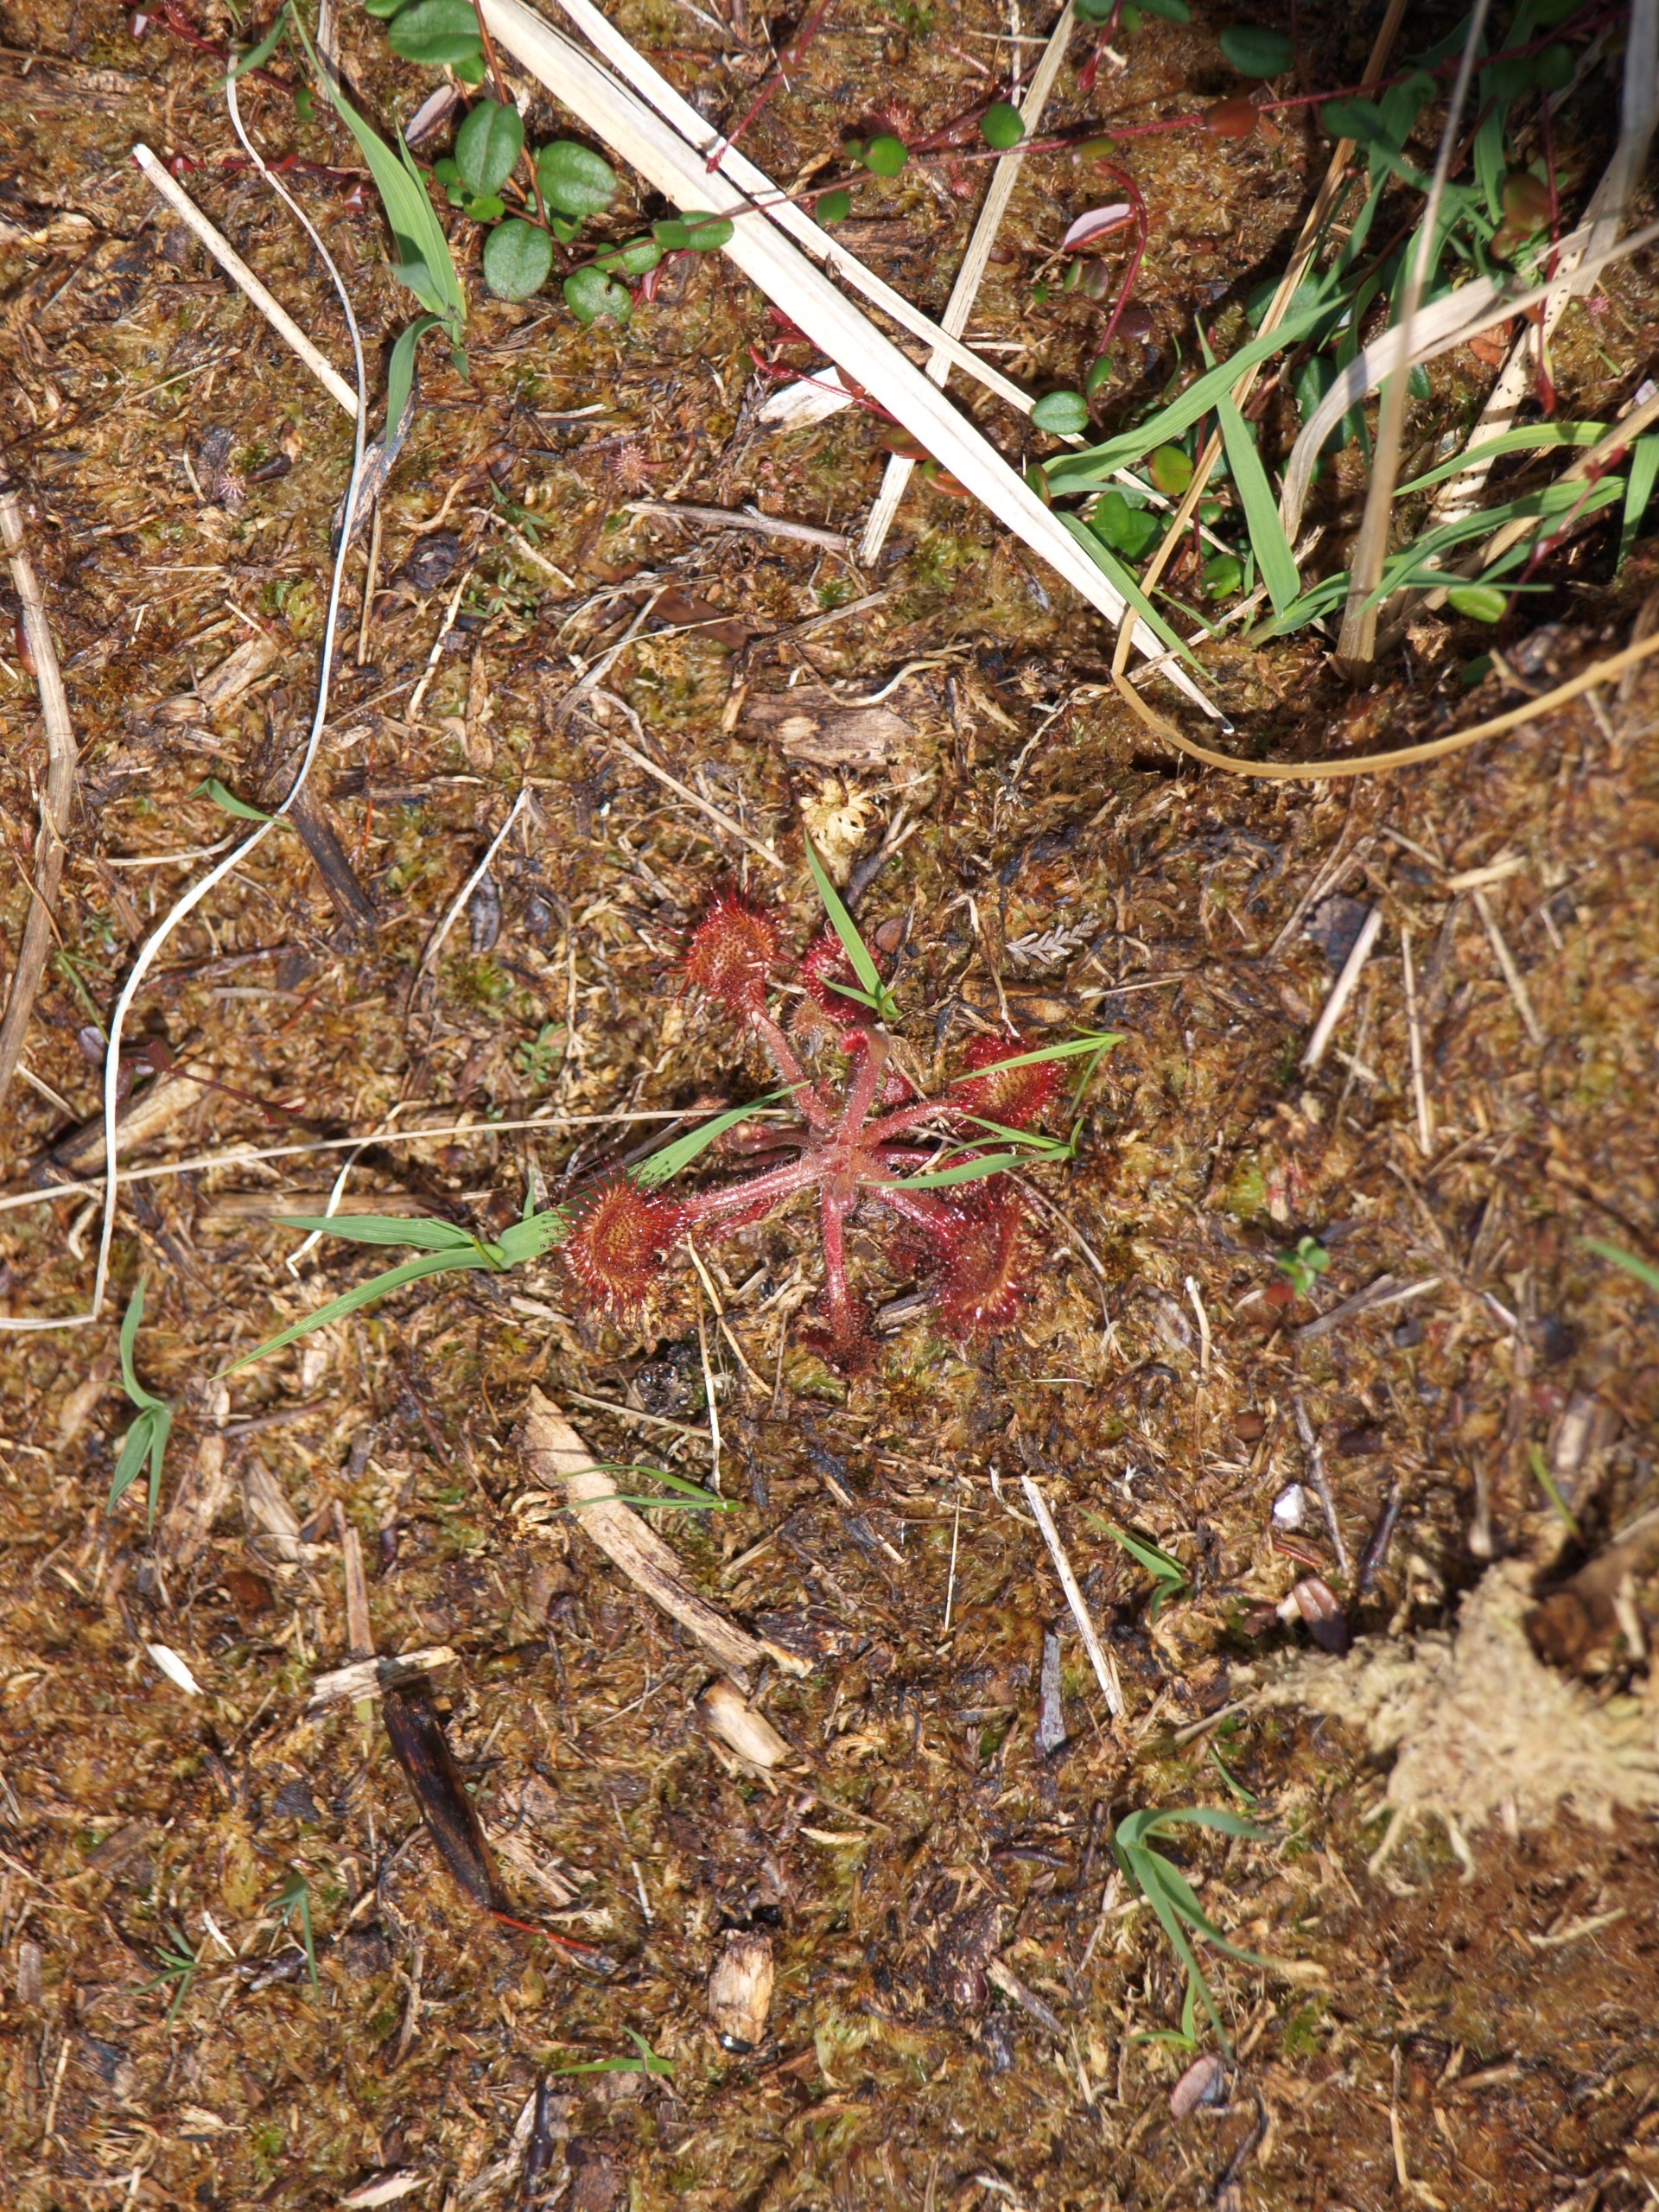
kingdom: Plantae
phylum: Tracheophyta
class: Magnoliopsida
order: Caryophyllales
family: Droseraceae
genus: Drosera
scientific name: Drosera rotundifolia
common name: Rundbladet soldug
